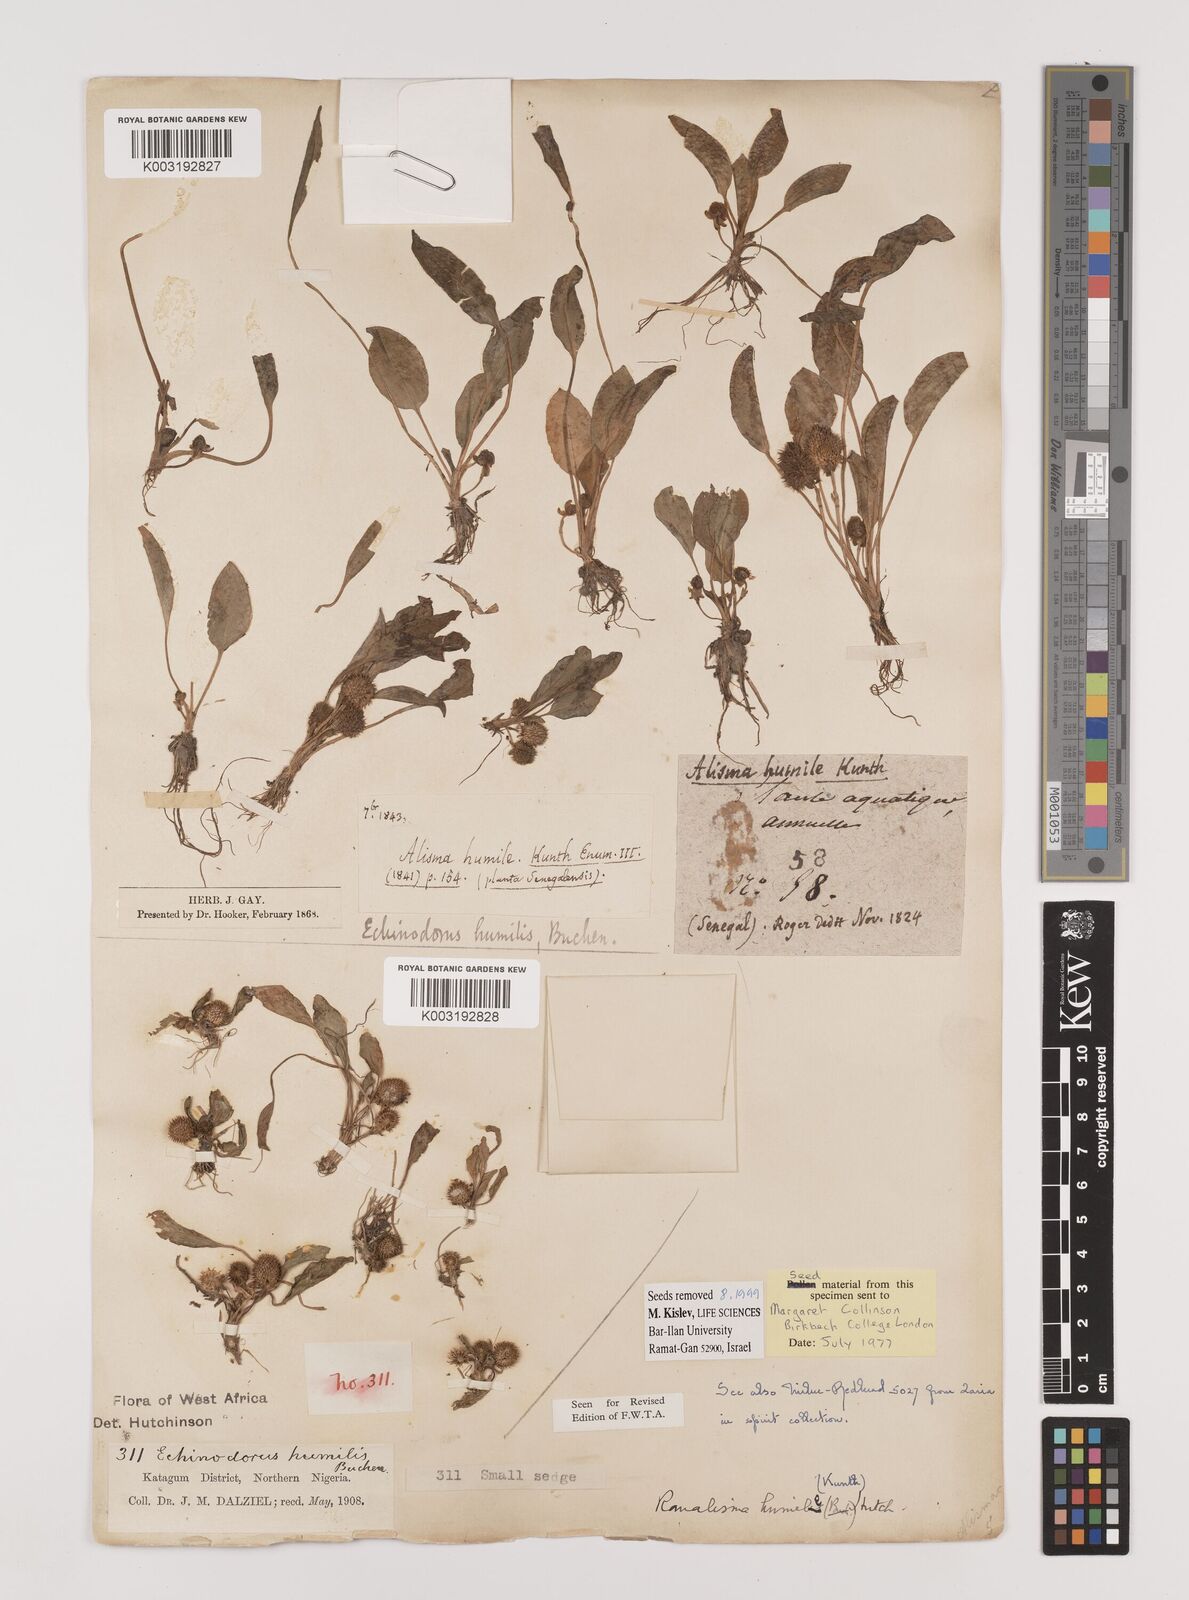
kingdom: Plantae
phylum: Tracheophyta
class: Liliopsida
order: Alismatales
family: Alismataceae
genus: Ranalisma
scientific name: Ranalisma humile
